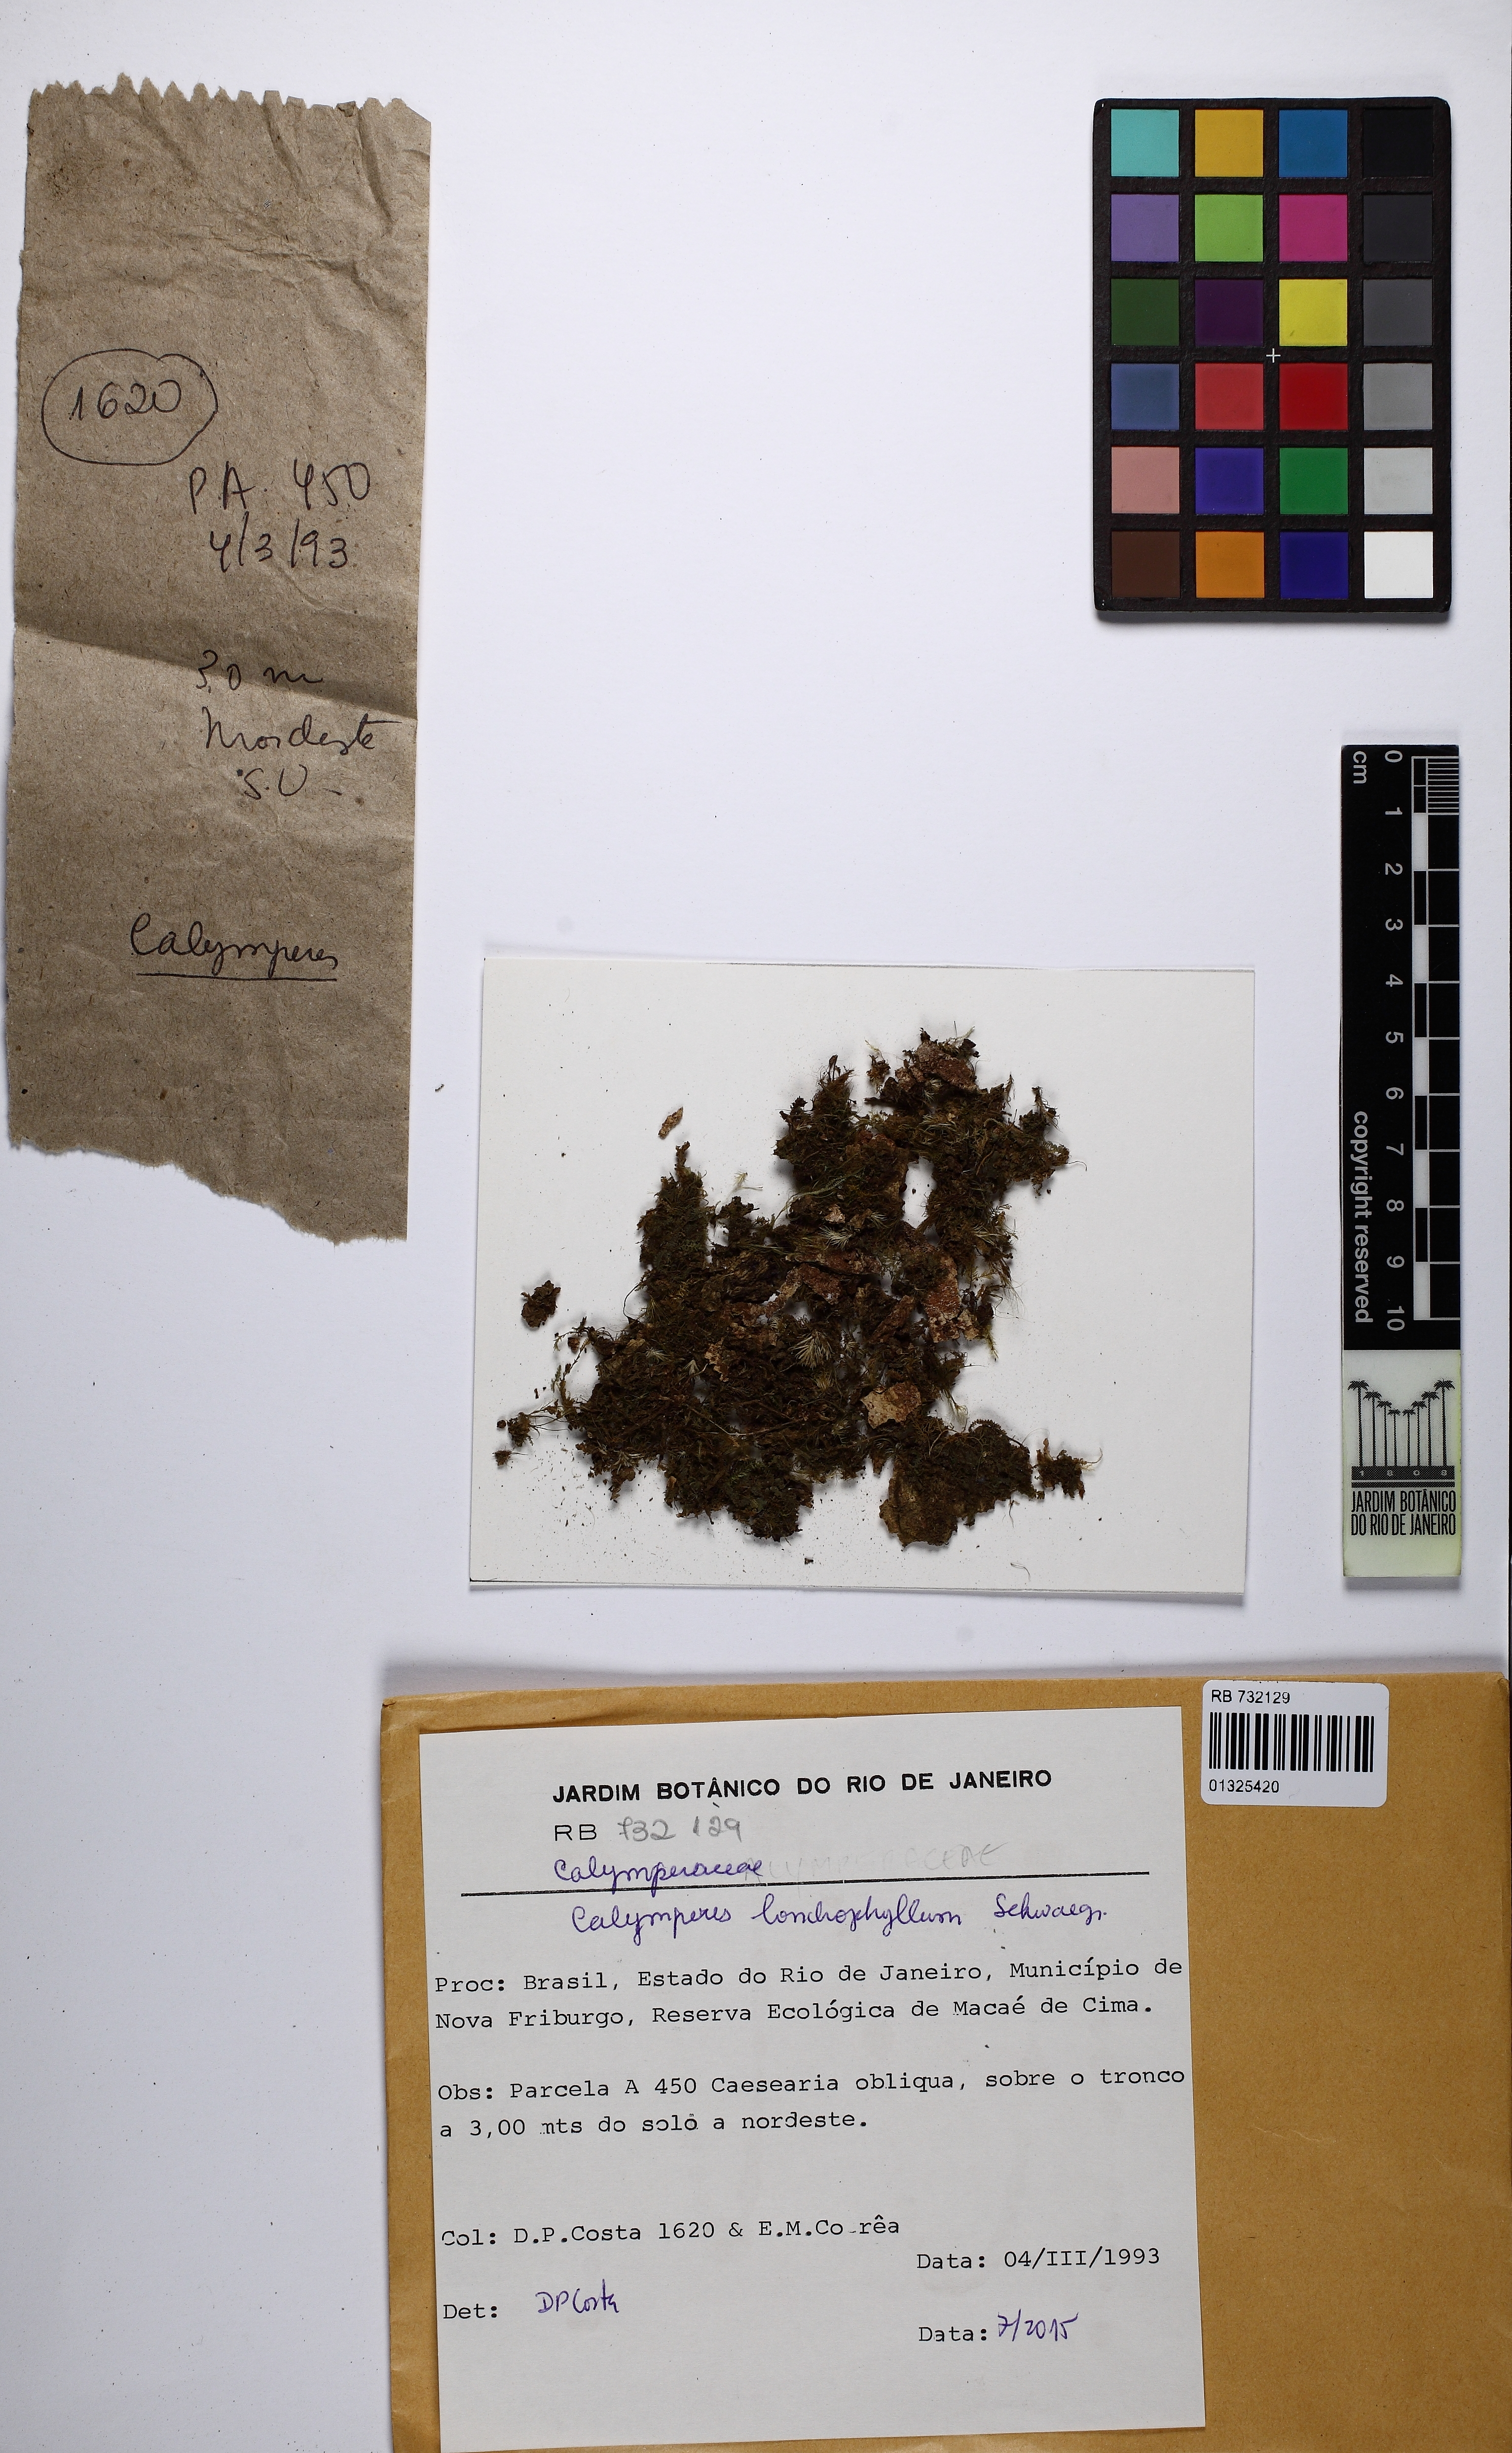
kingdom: Plantae
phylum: Bryophyta
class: Bryopsida
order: Dicranales
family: Calymperaceae
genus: Calymperes
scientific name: Calymperes lonchophyllum
